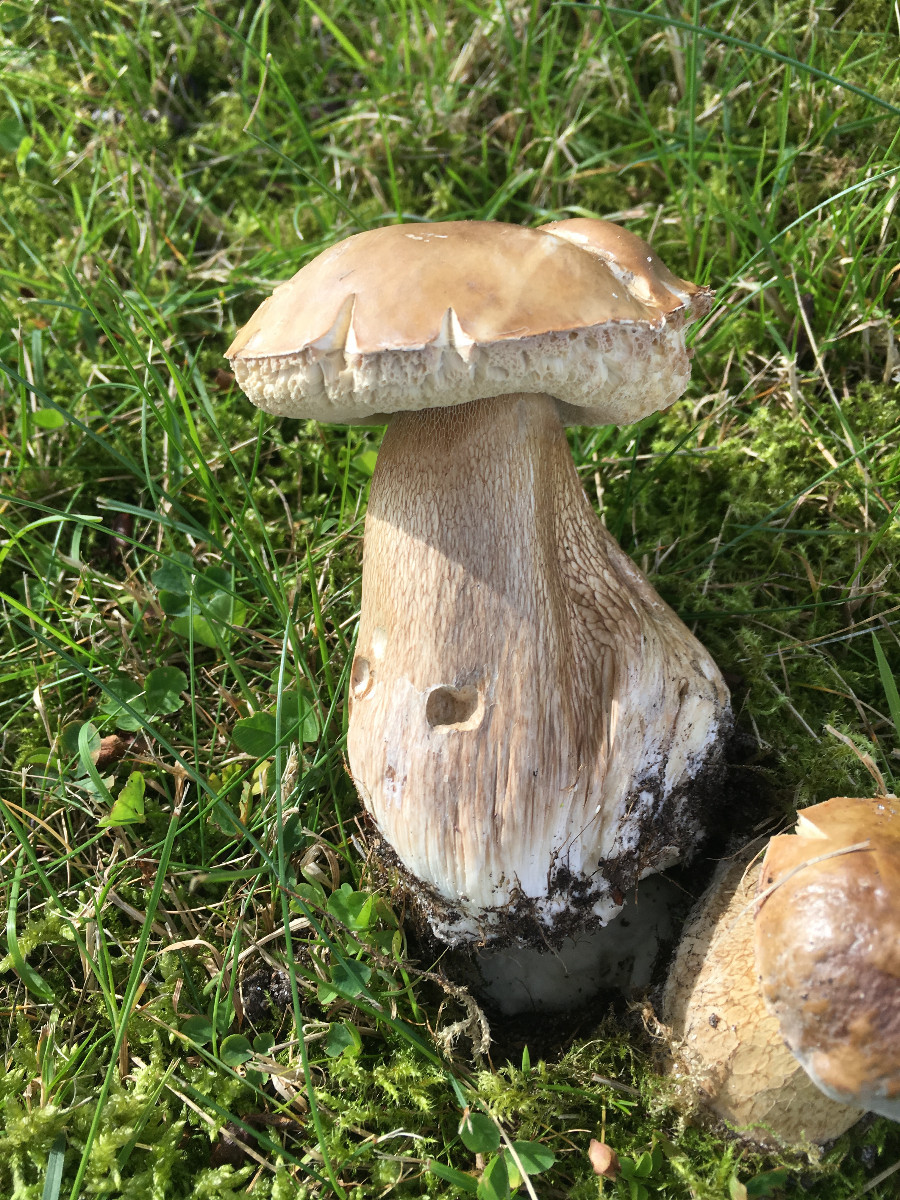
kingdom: Fungi
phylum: Basidiomycota
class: Agaricomycetes
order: Boletales
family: Boletaceae
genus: Boletus
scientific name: Boletus reticulatus
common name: sommer-rørhat
